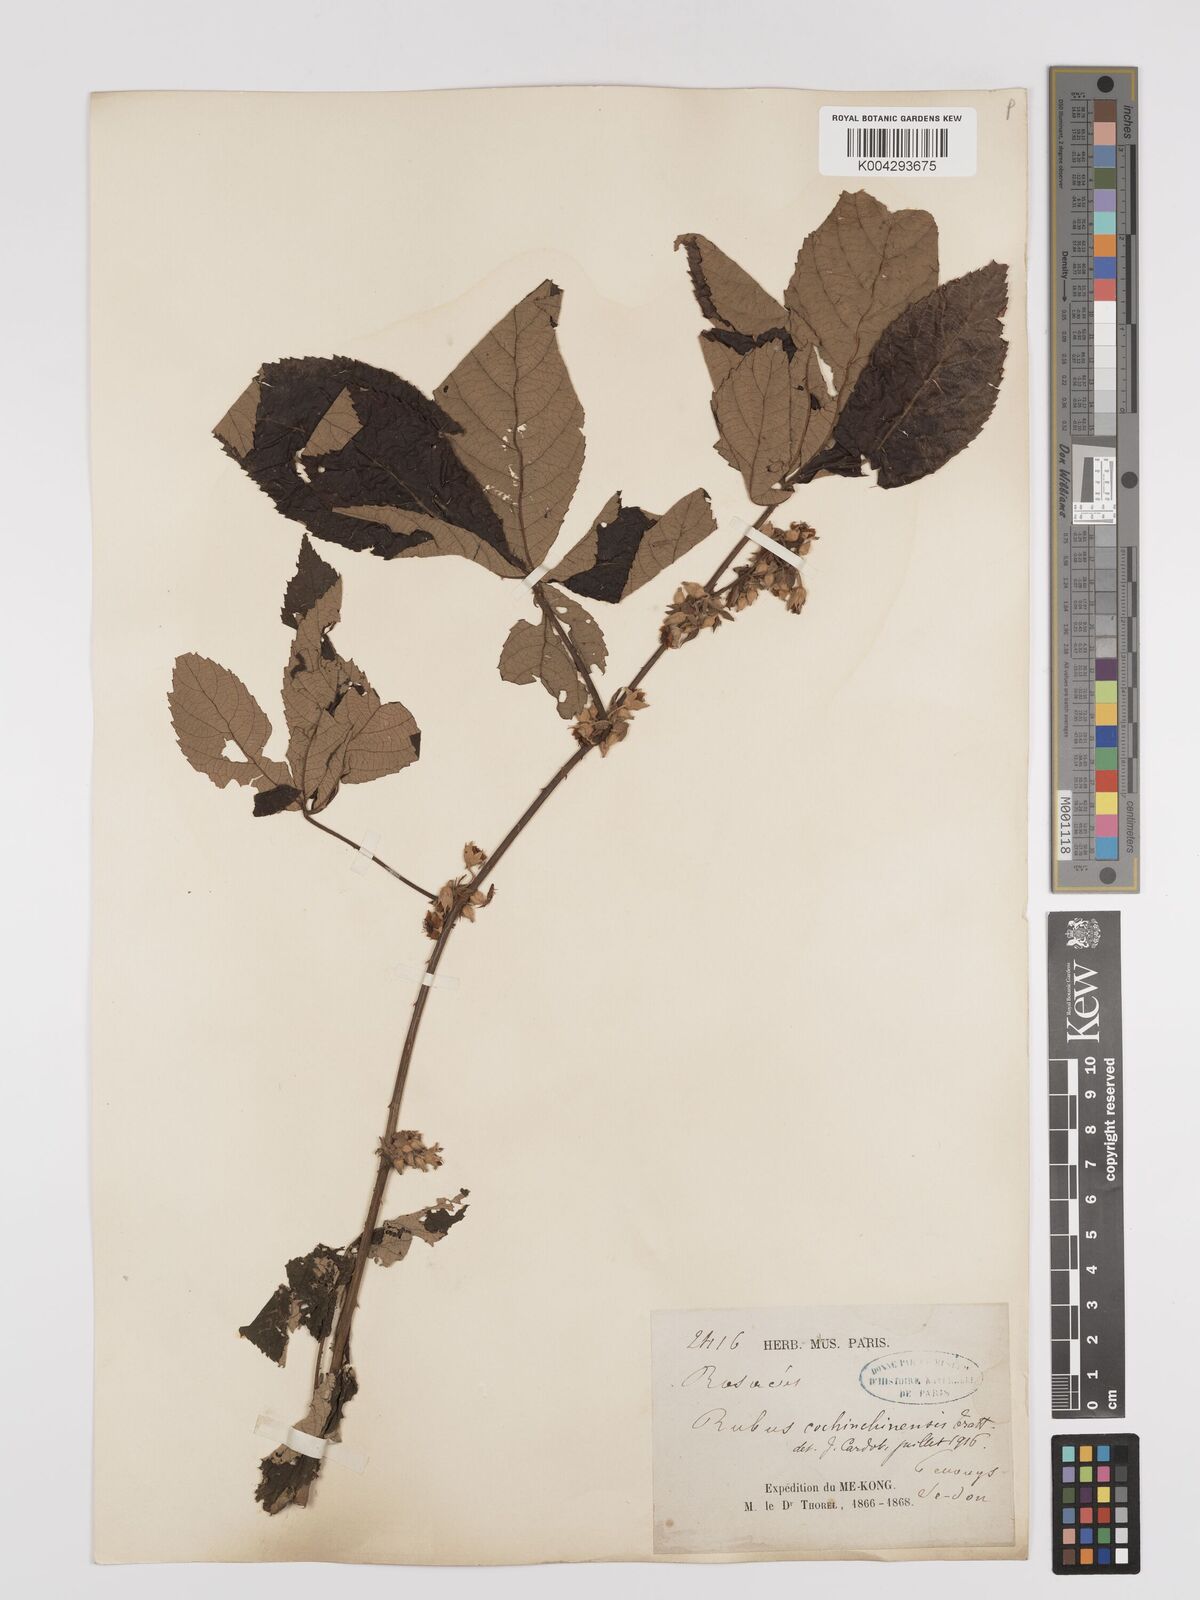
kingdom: Plantae
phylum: Tracheophyta
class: Magnoliopsida
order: Rosales
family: Rosaceae
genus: Rubus
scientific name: Rubus cochinchinensis
